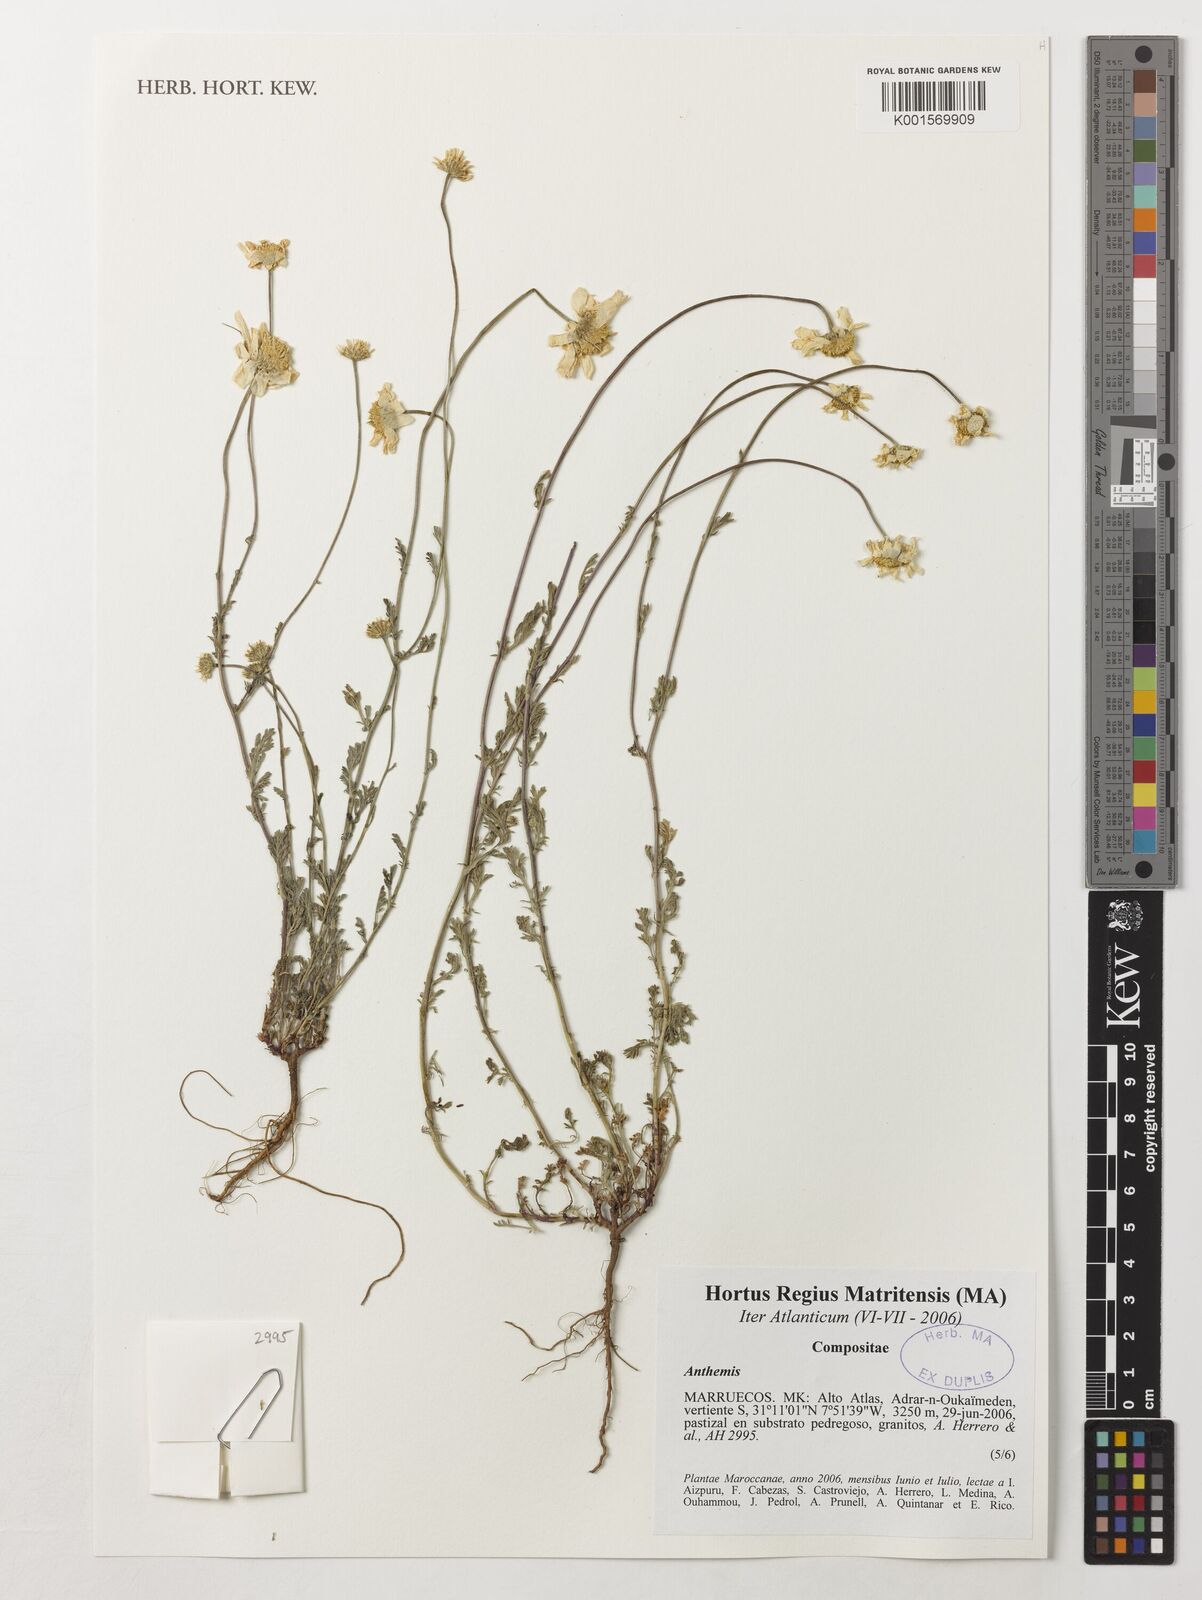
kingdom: Plantae
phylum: Tracheophyta
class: Magnoliopsida
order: Asterales
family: Asteraceae
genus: Anthemis
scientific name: Anthemis
